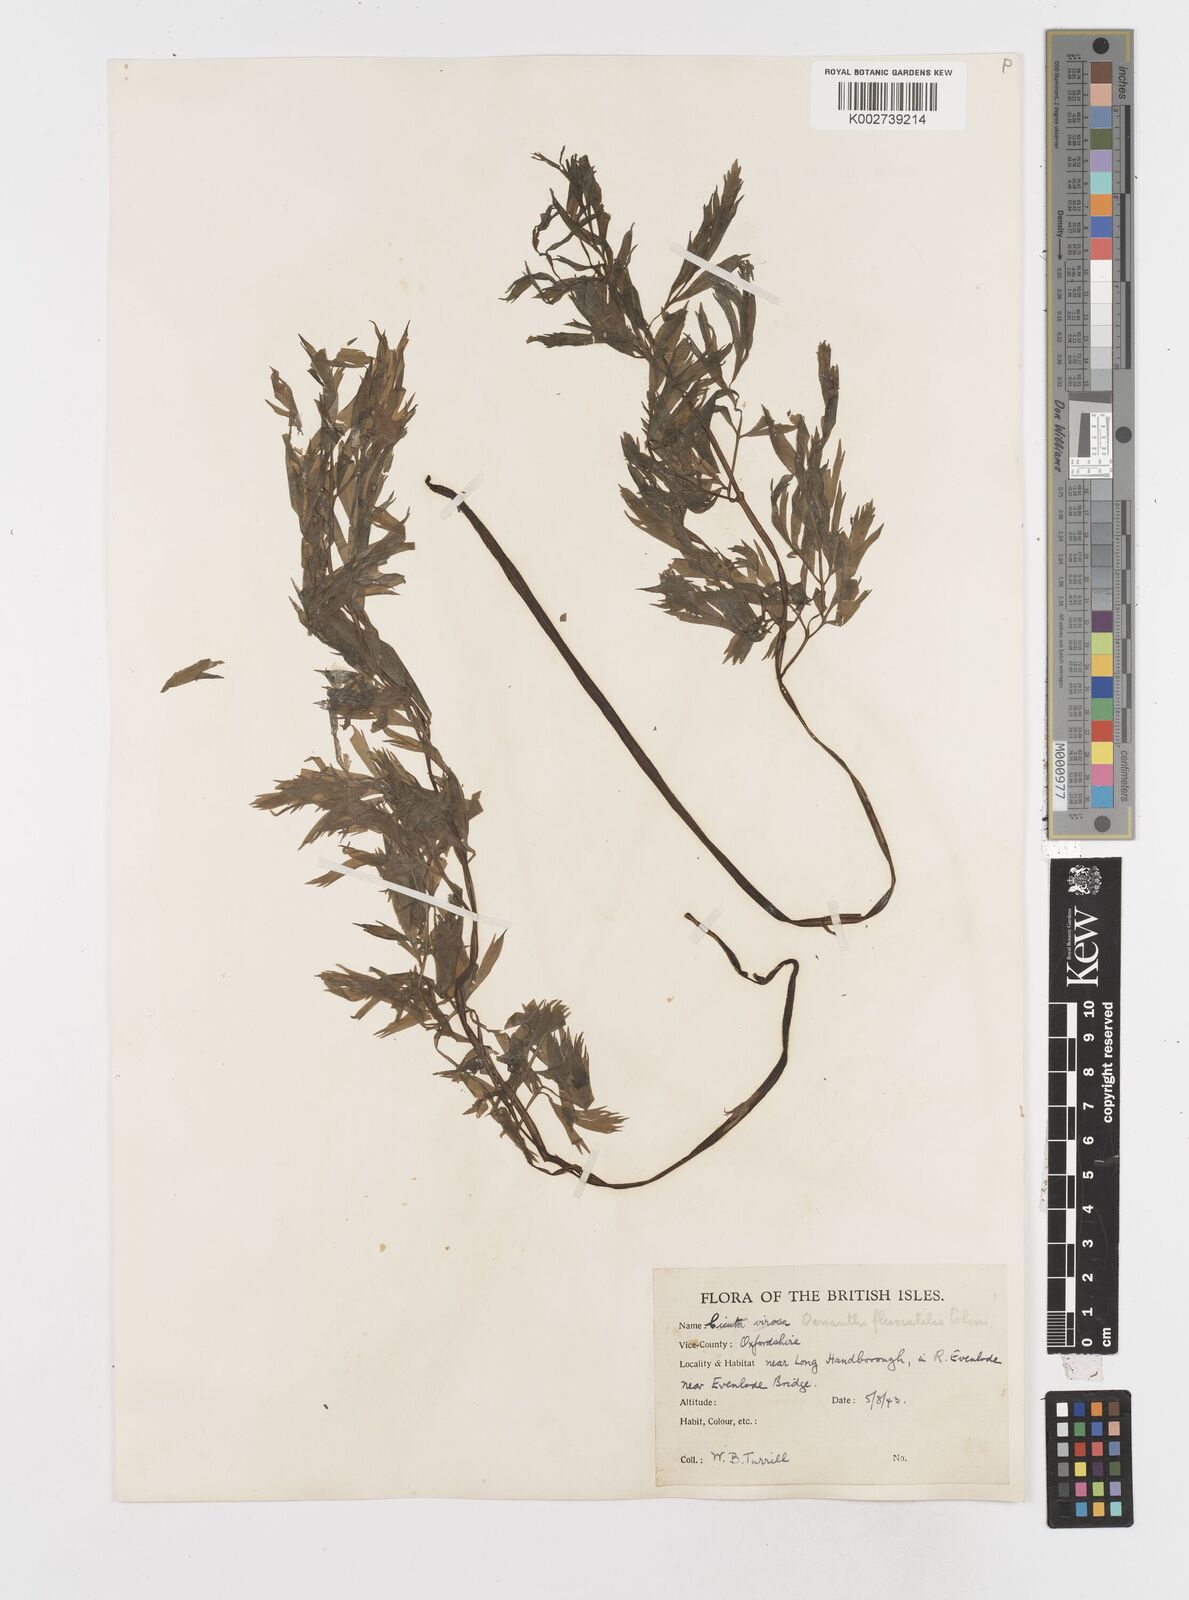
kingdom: Plantae
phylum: Tracheophyta
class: Magnoliopsida
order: Apiales
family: Apiaceae
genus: Oenanthe
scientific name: Oenanthe fluviatilis
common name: River water-dropwort
